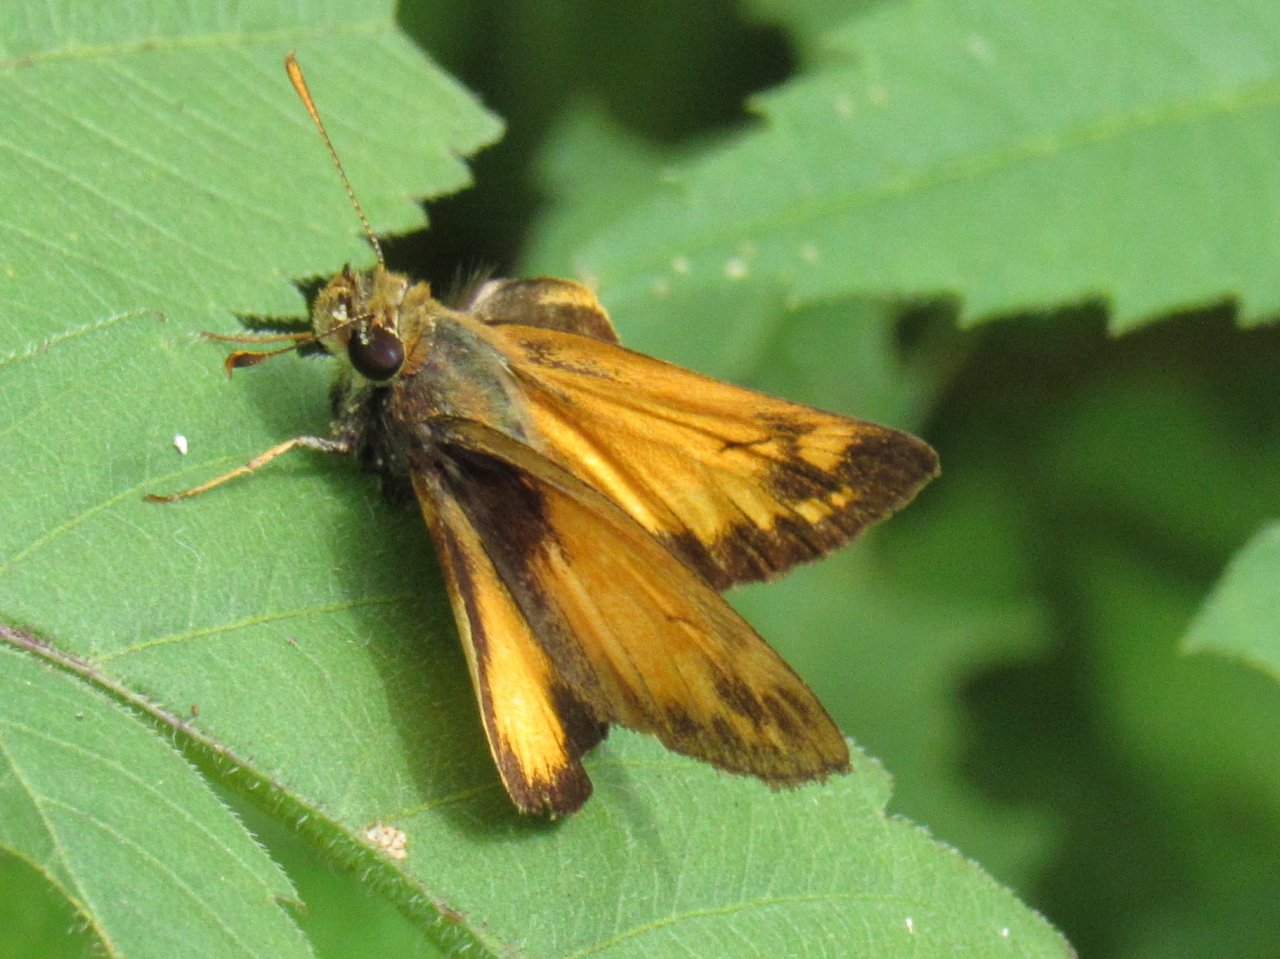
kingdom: Animalia
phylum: Arthropoda
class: Insecta
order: Lepidoptera
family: Hesperiidae
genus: Lon
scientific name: Lon zabulon
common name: Zabulon Skipper
